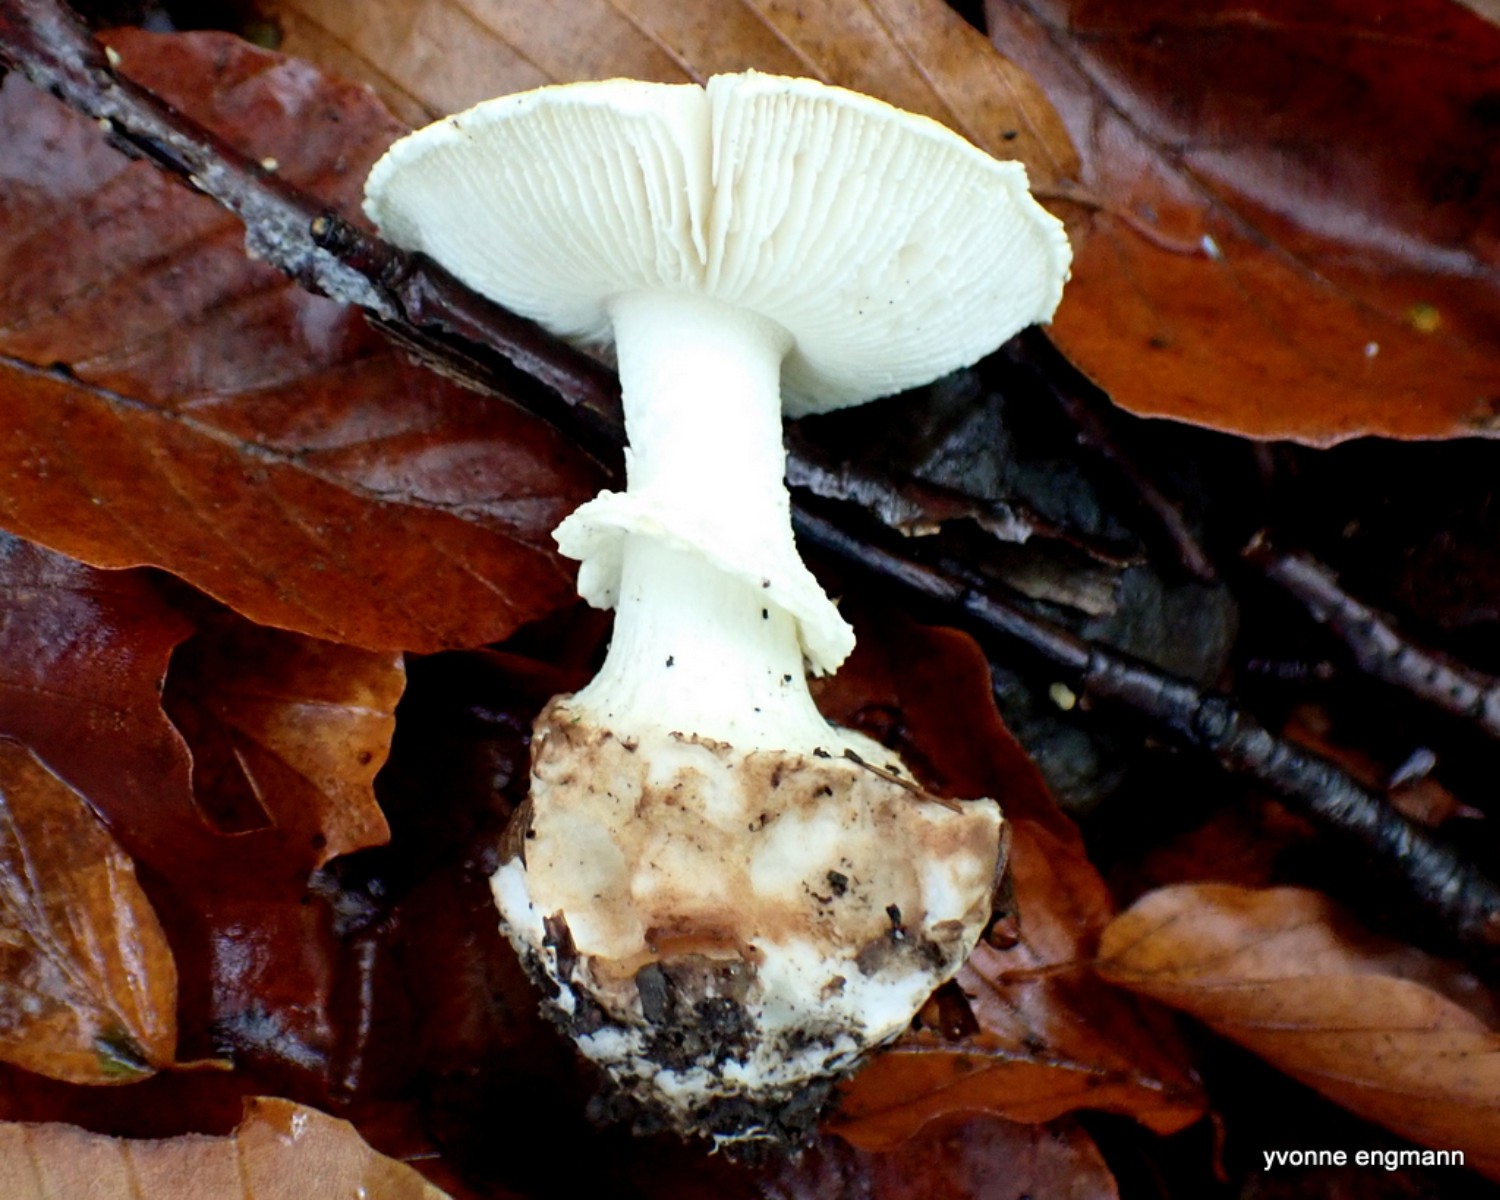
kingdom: Fungi
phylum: Basidiomycota
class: Agaricomycetes
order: Agaricales
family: Amanitaceae
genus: Amanita
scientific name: Amanita citrina
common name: False death-cap
